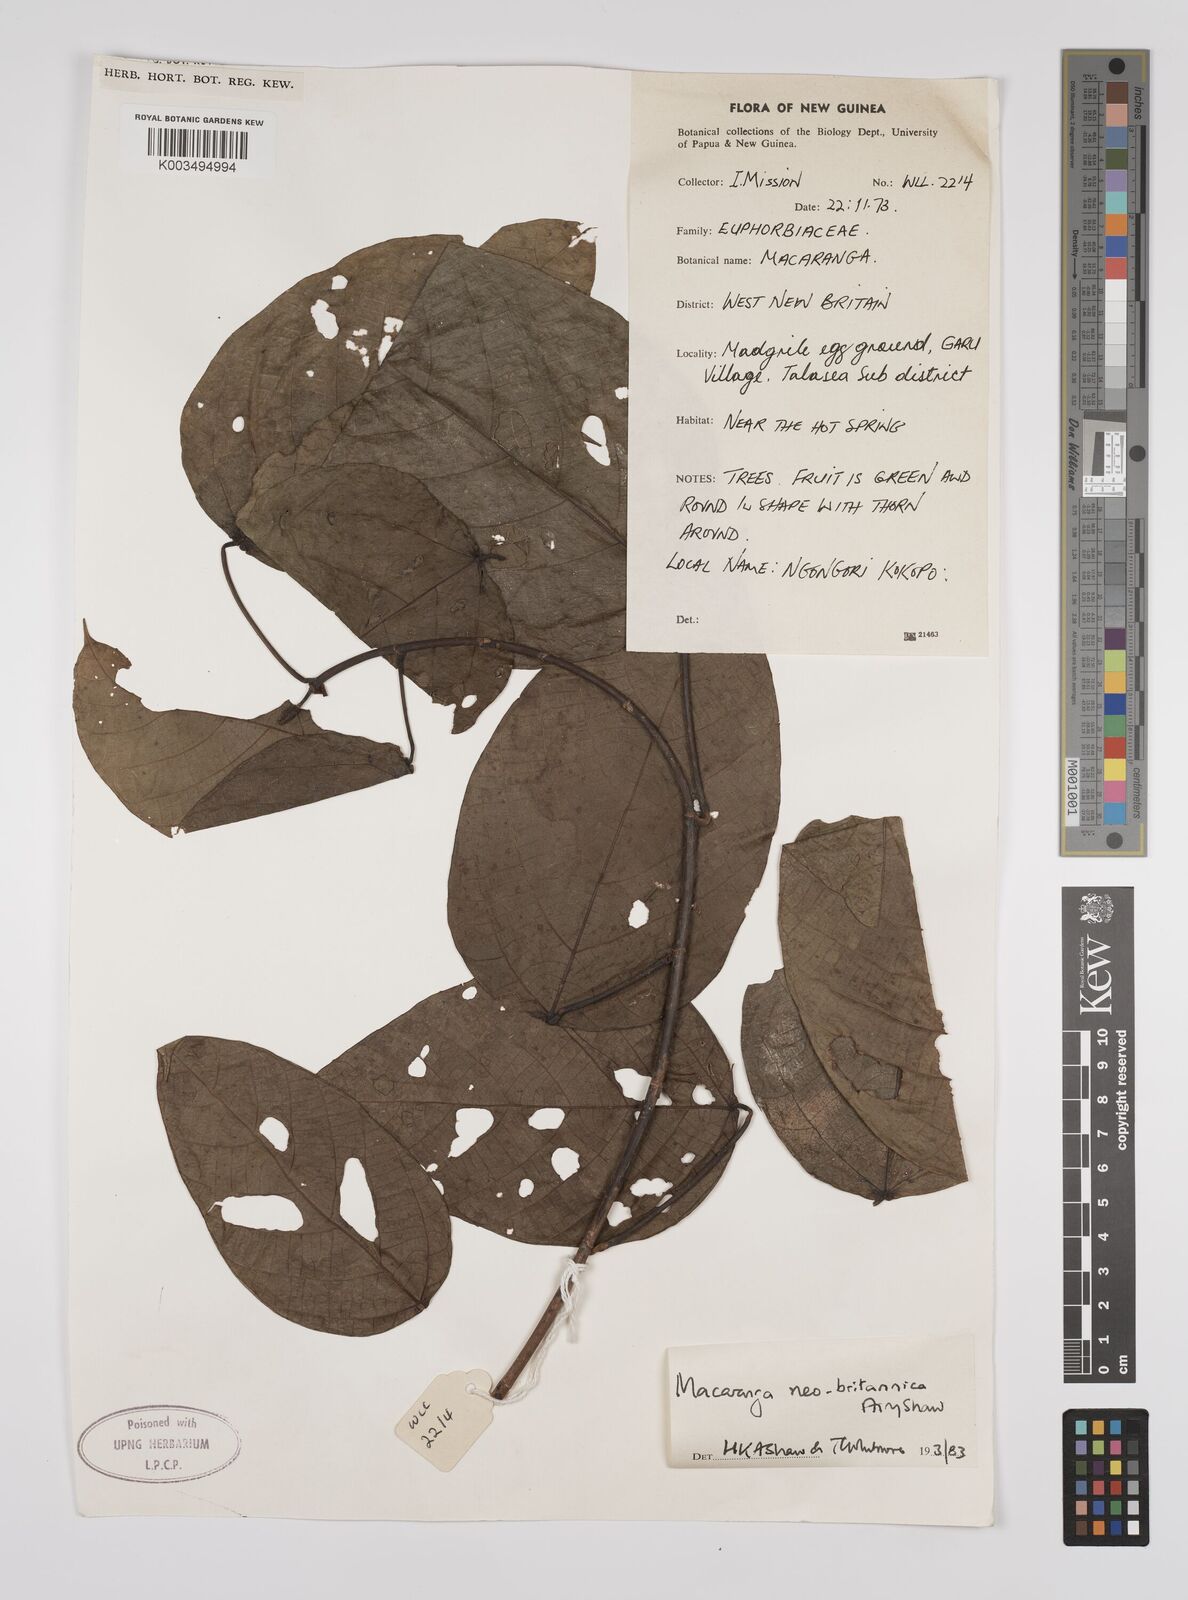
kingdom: Plantae
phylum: Tracheophyta
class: Magnoliopsida
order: Malpighiales
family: Euphorbiaceae
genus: Macaranga
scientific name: Macaranga neobritannica
